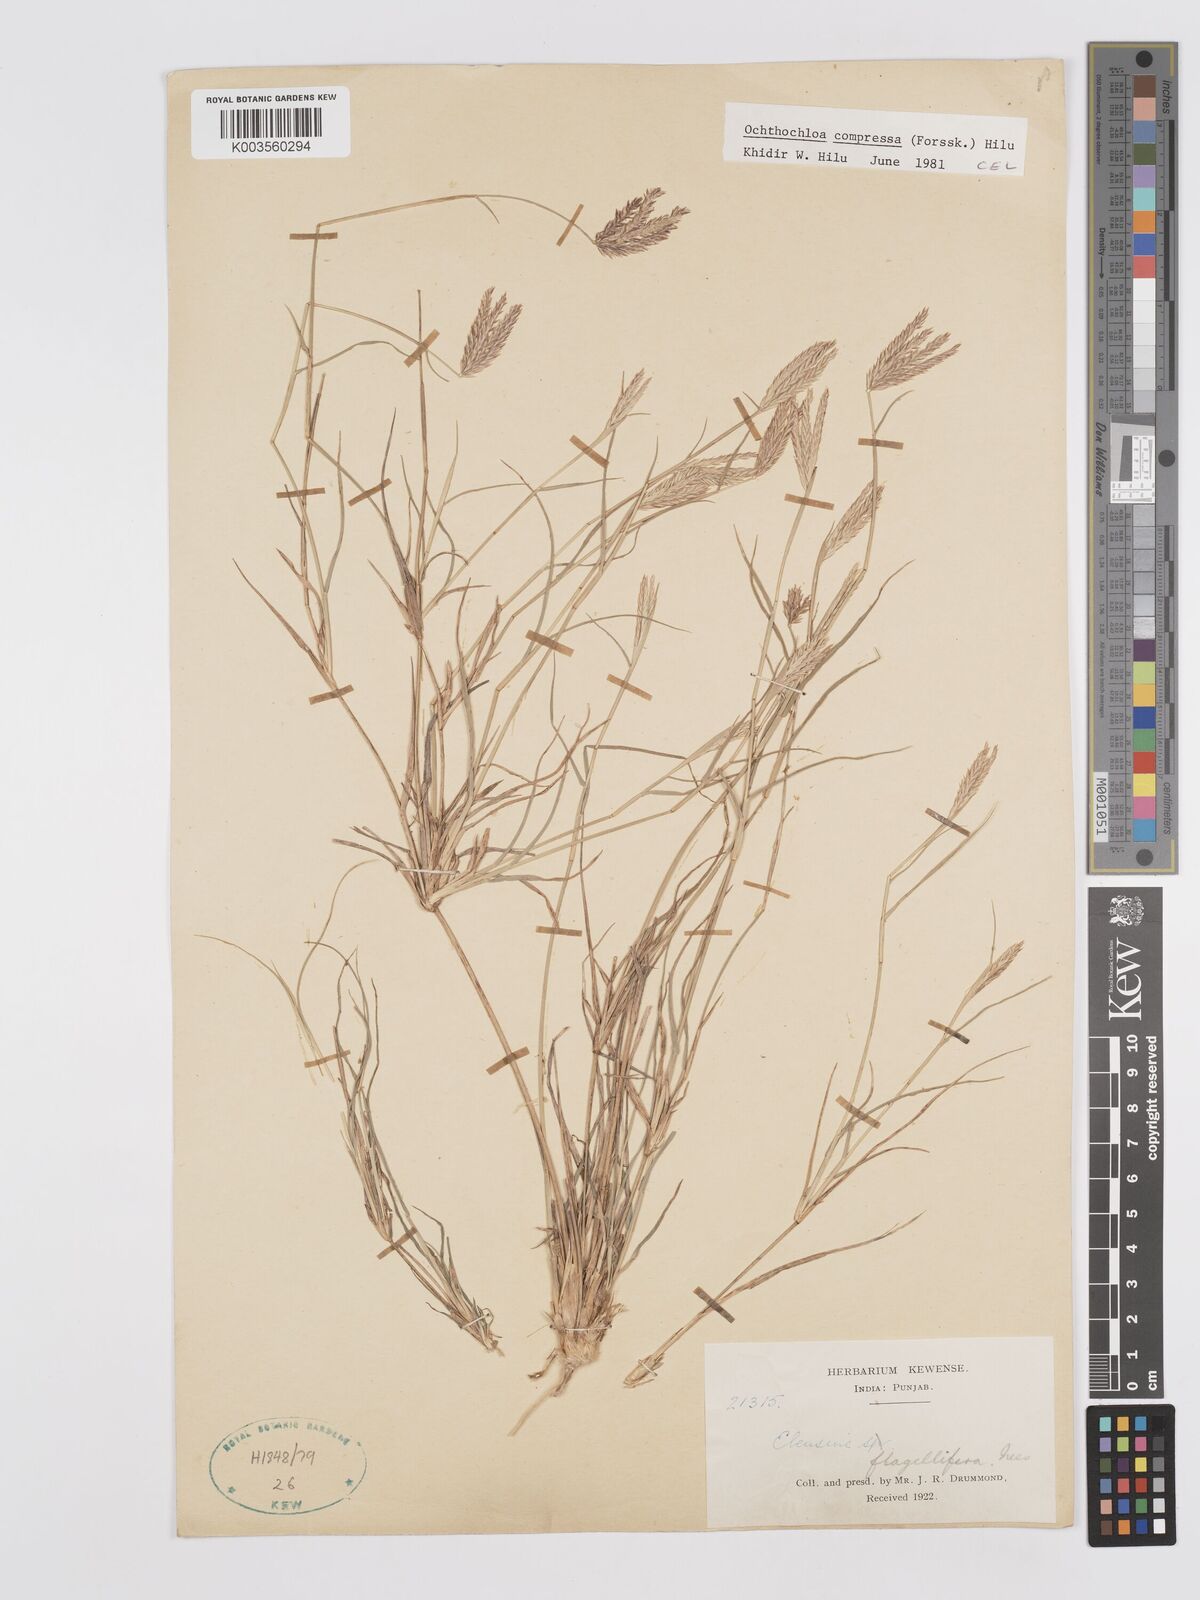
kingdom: Plantae
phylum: Tracheophyta
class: Liliopsida
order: Poales
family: Poaceae
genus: Chloris
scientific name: Chloris flagellifera
